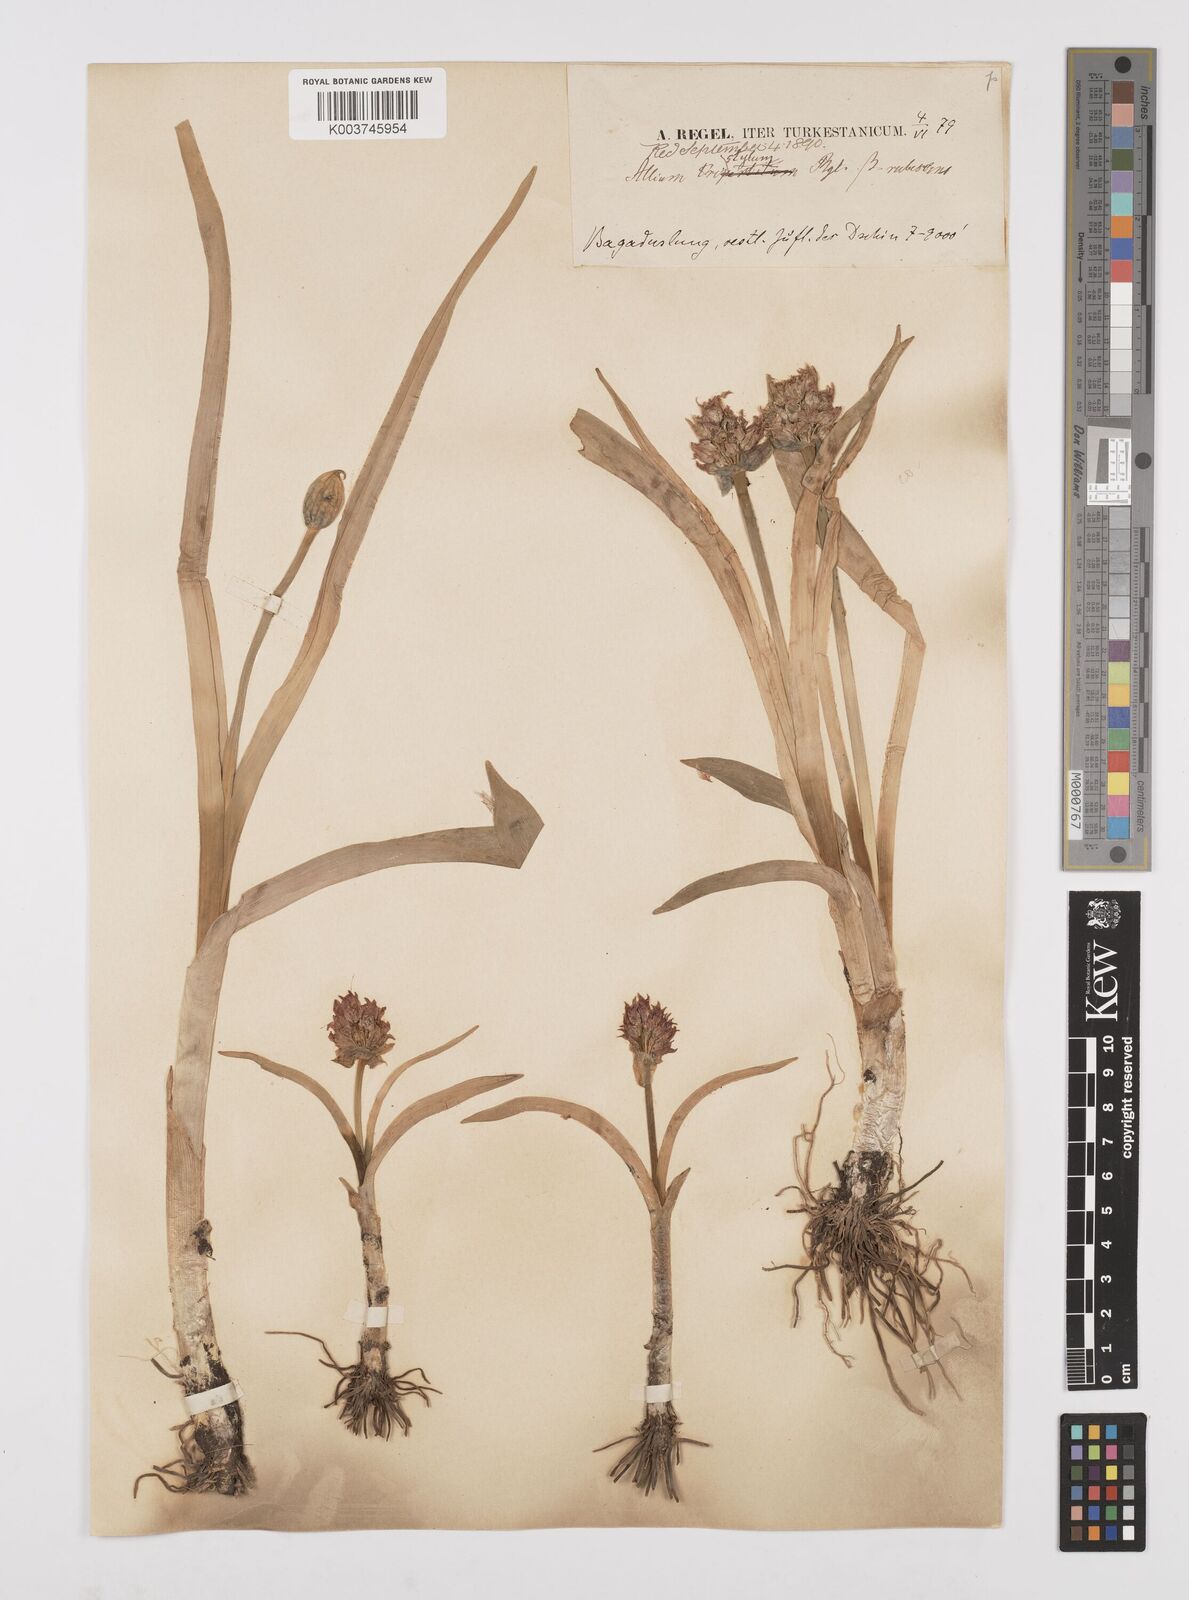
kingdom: Plantae
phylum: Tracheophyta
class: Liliopsida
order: Asparagales
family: Amaryllidaceae
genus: Allium
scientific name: Allium semenovii
